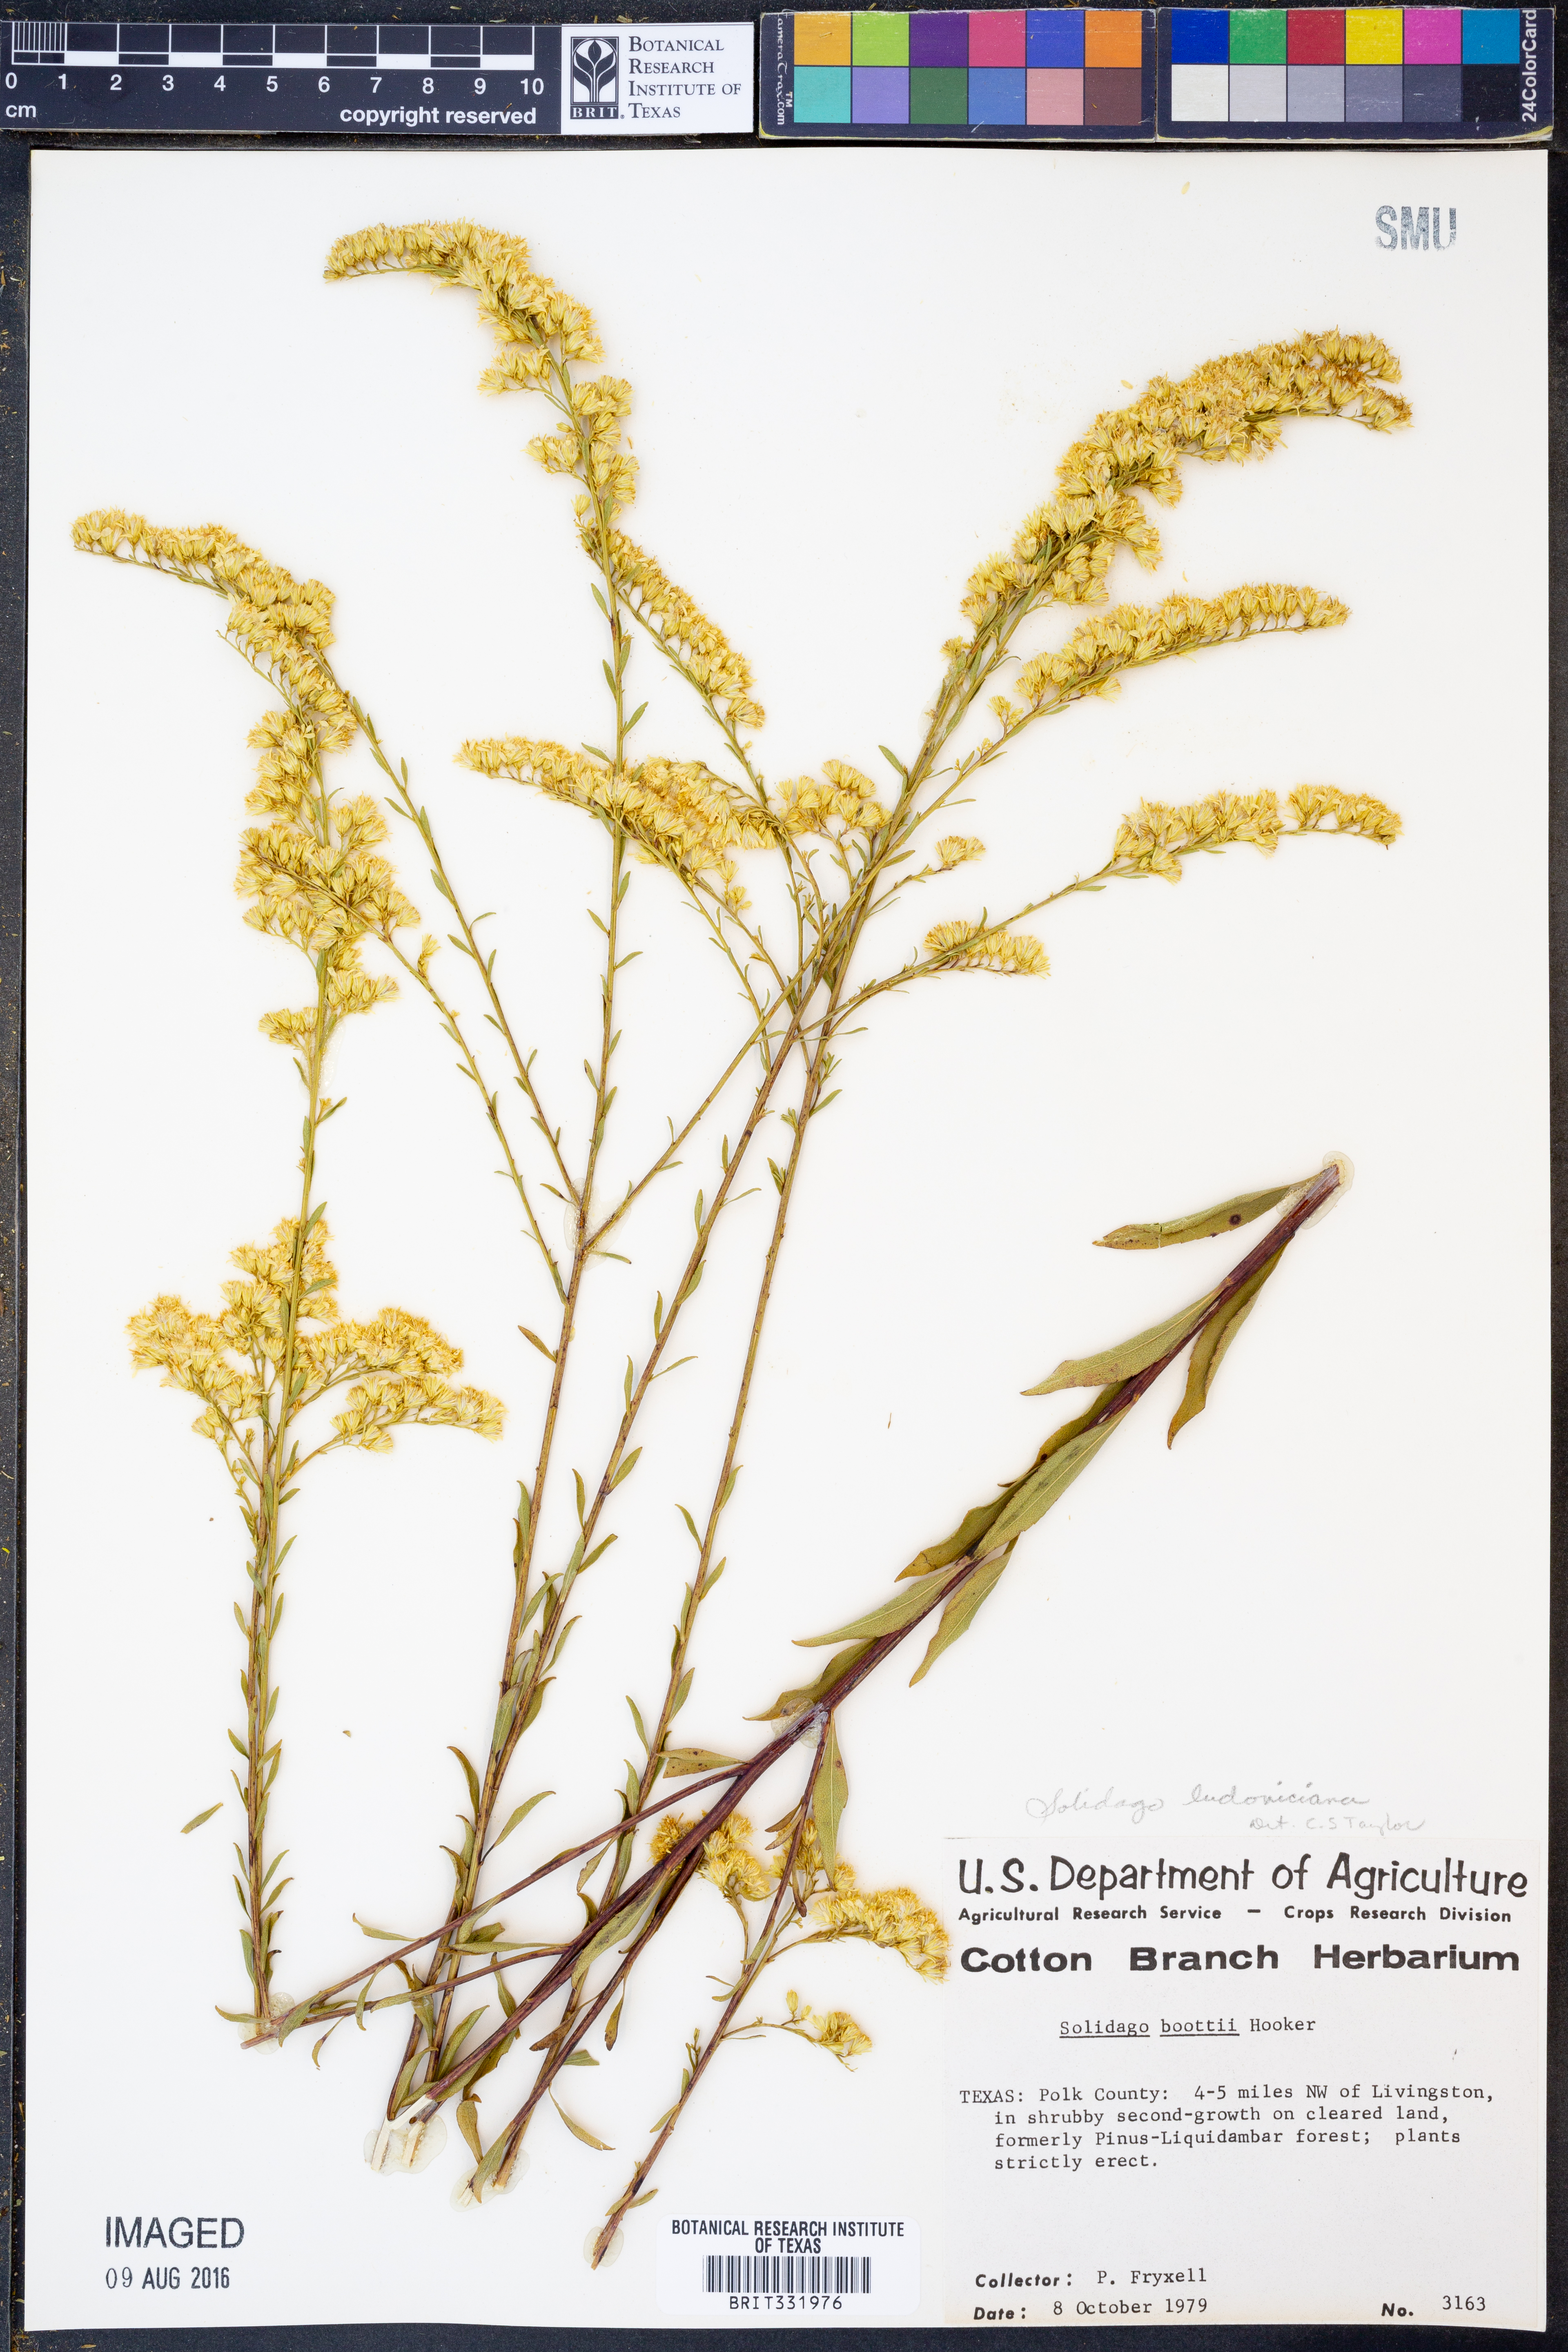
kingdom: Plantae
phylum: Tracheophyta
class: Magnoliopsida
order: Asterales
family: Asteraceae
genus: Solidago
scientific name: Solidago ludoviciana
